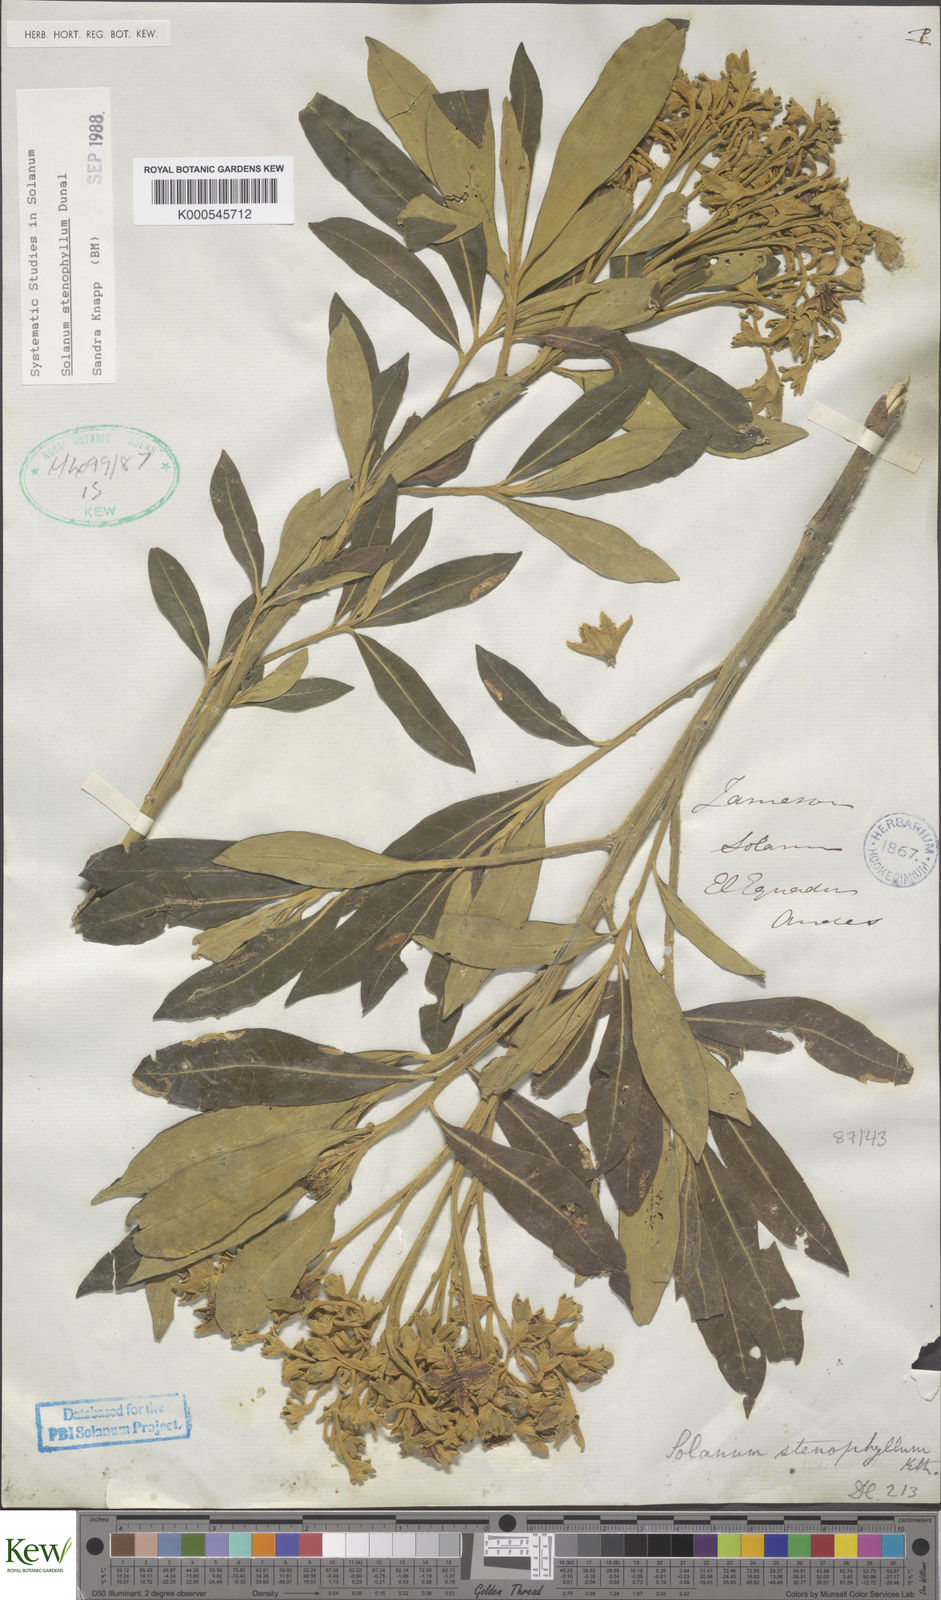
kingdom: Plantae
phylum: Tracheophyta
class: Magnoliopsida
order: Solanales
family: Solanaceae
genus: Solanum
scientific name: Solanum stenophyllum
